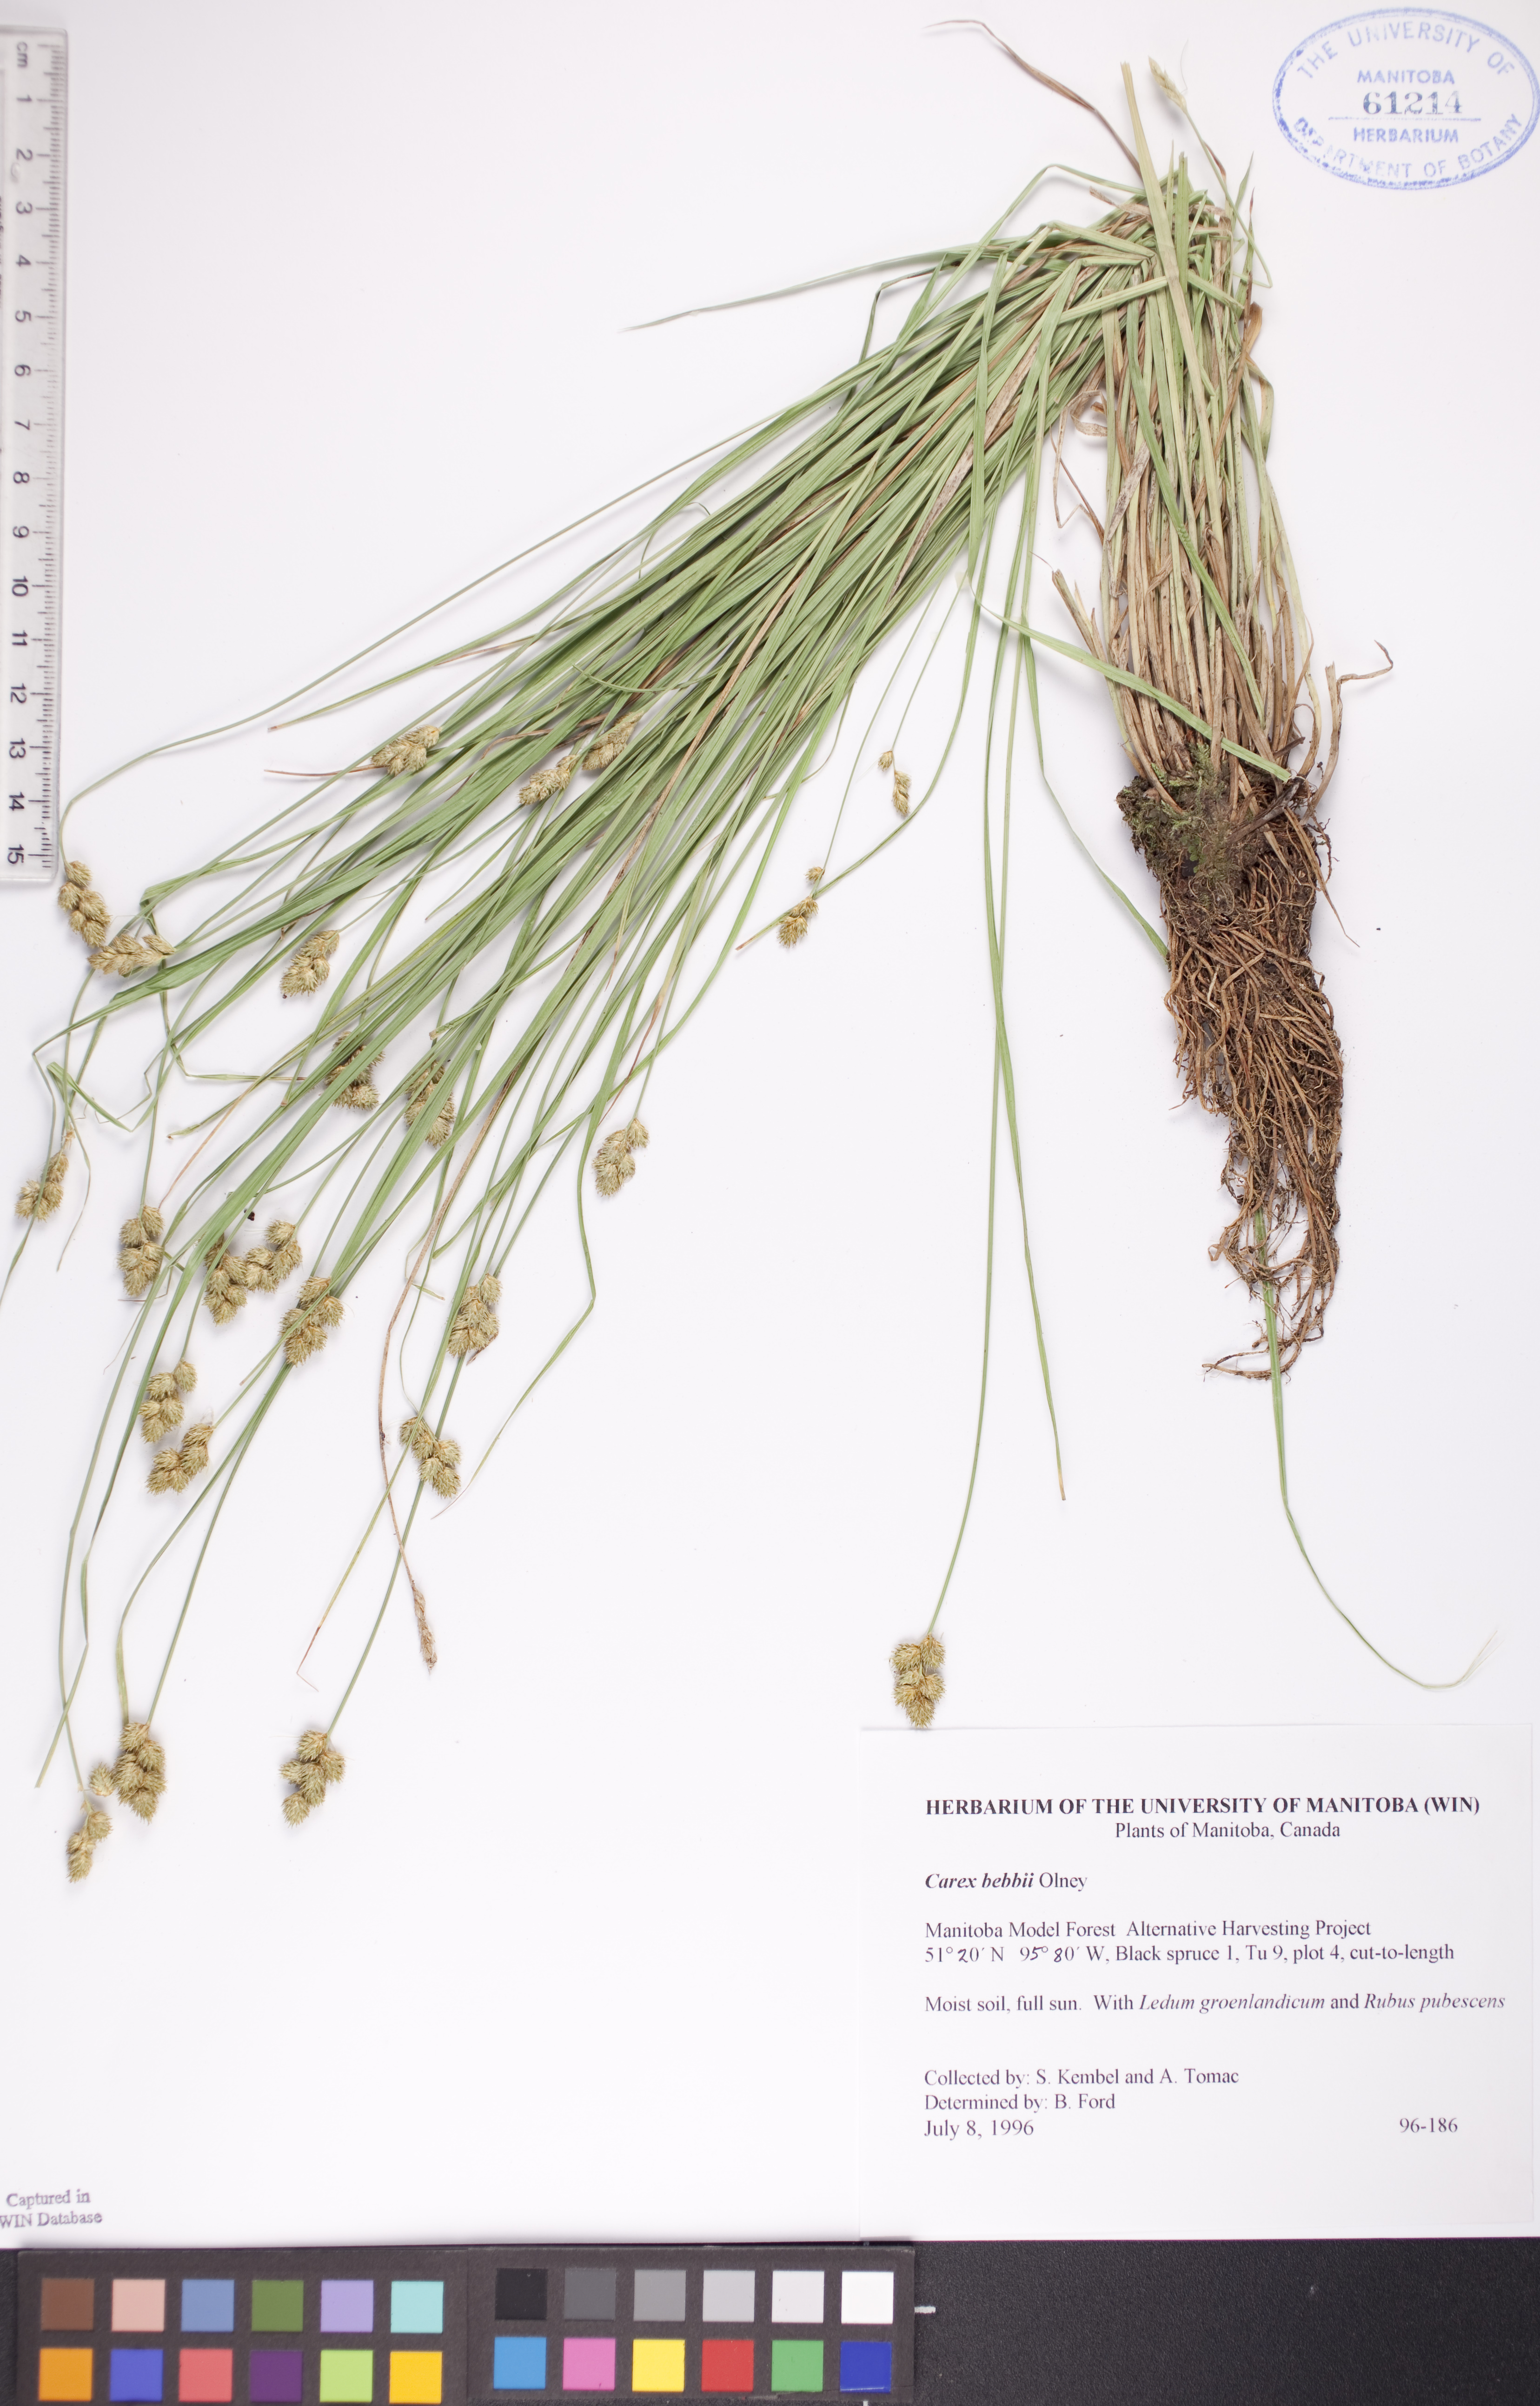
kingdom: Plantae
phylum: Tracheophyta
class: Liliopsida
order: Poales
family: Cyperaceae
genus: Carex
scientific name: Carex bebbii
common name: Bebb's sedge
